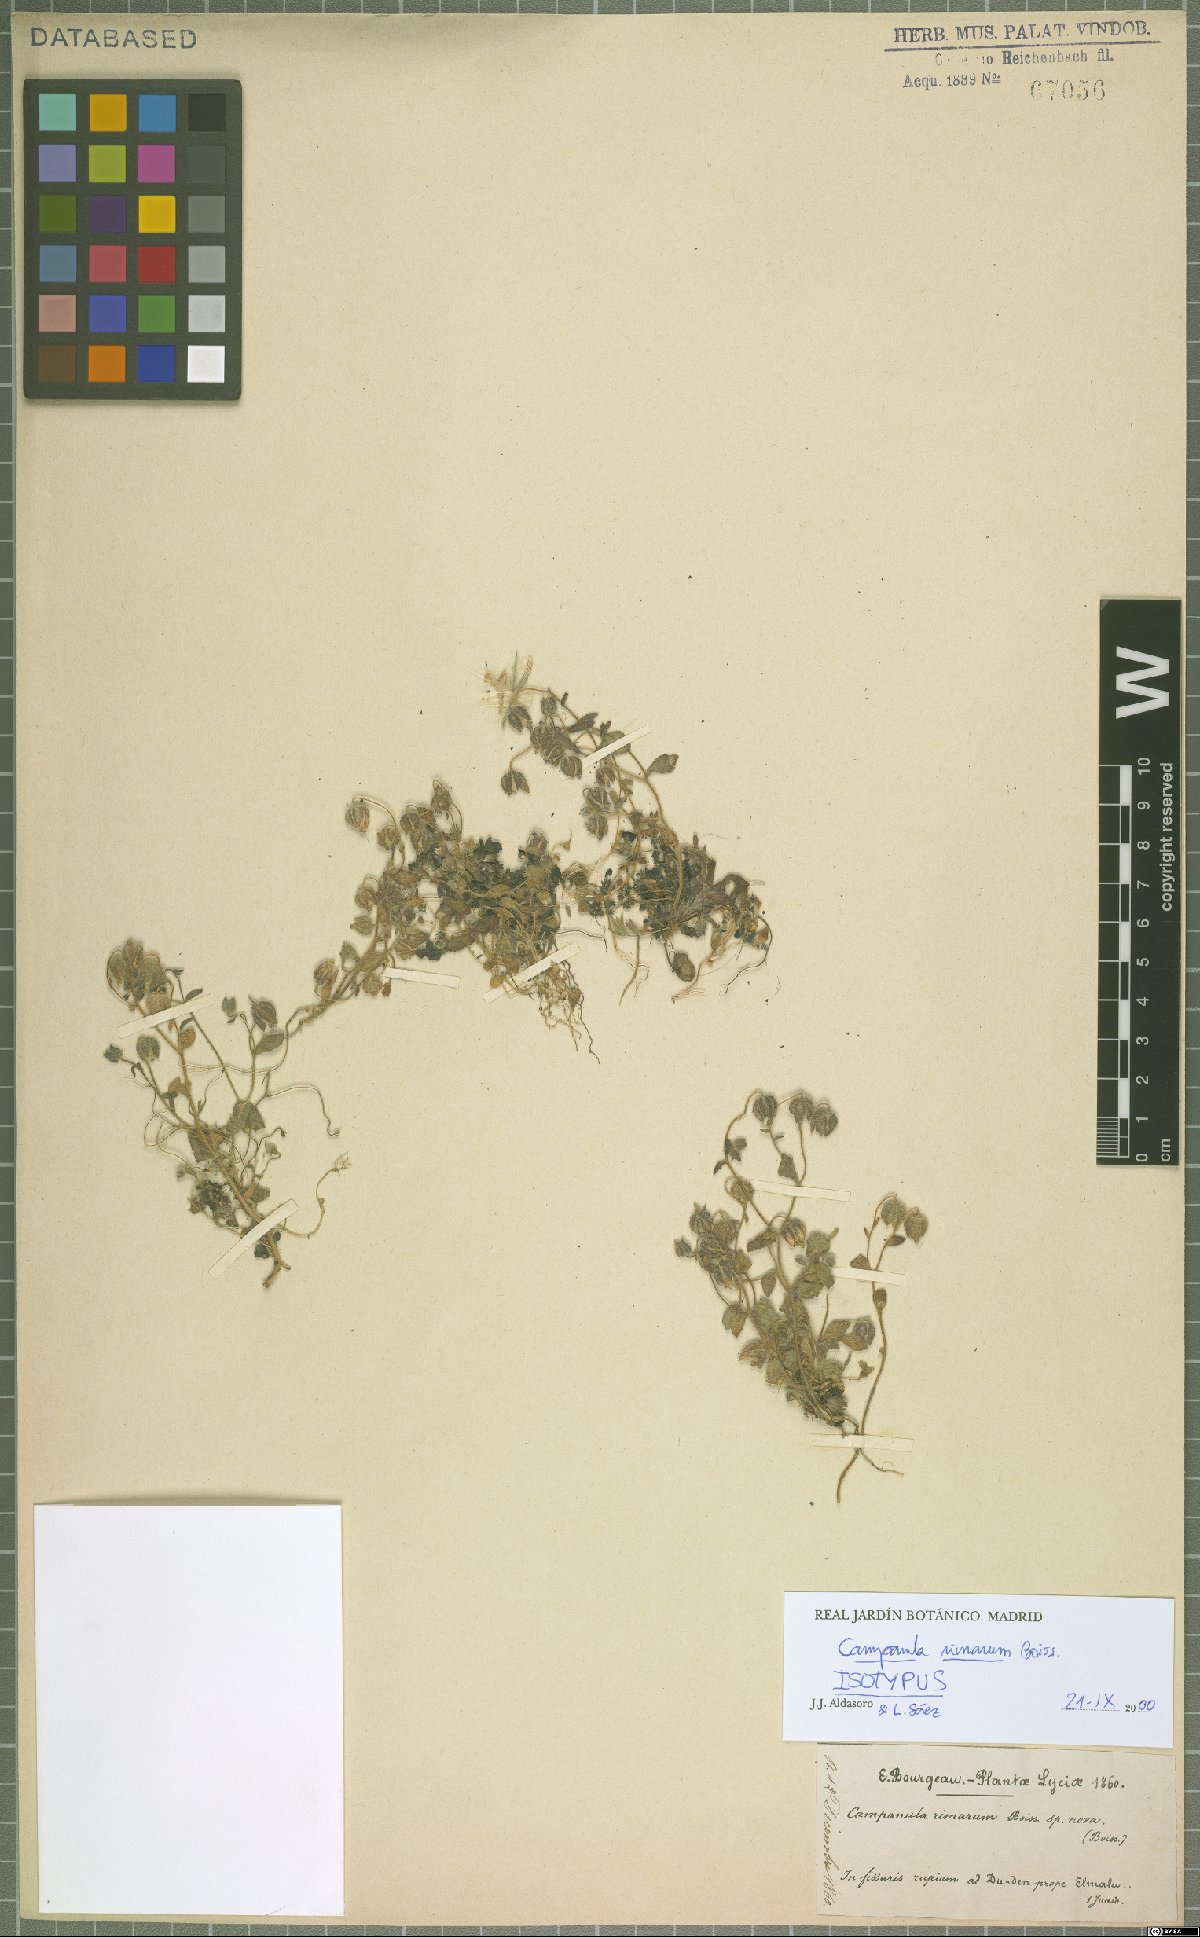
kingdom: Plantae
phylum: Tracheophyta
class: Magnoliopsida
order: Asterales
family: Campanulaceae
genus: Campanula
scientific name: Campanula rimarum
